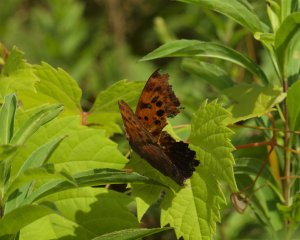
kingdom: Animalia
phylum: Arthropoda
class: Insecta
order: Lepidoptera
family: Nymphalidae
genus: Polygonia
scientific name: Polygonia
